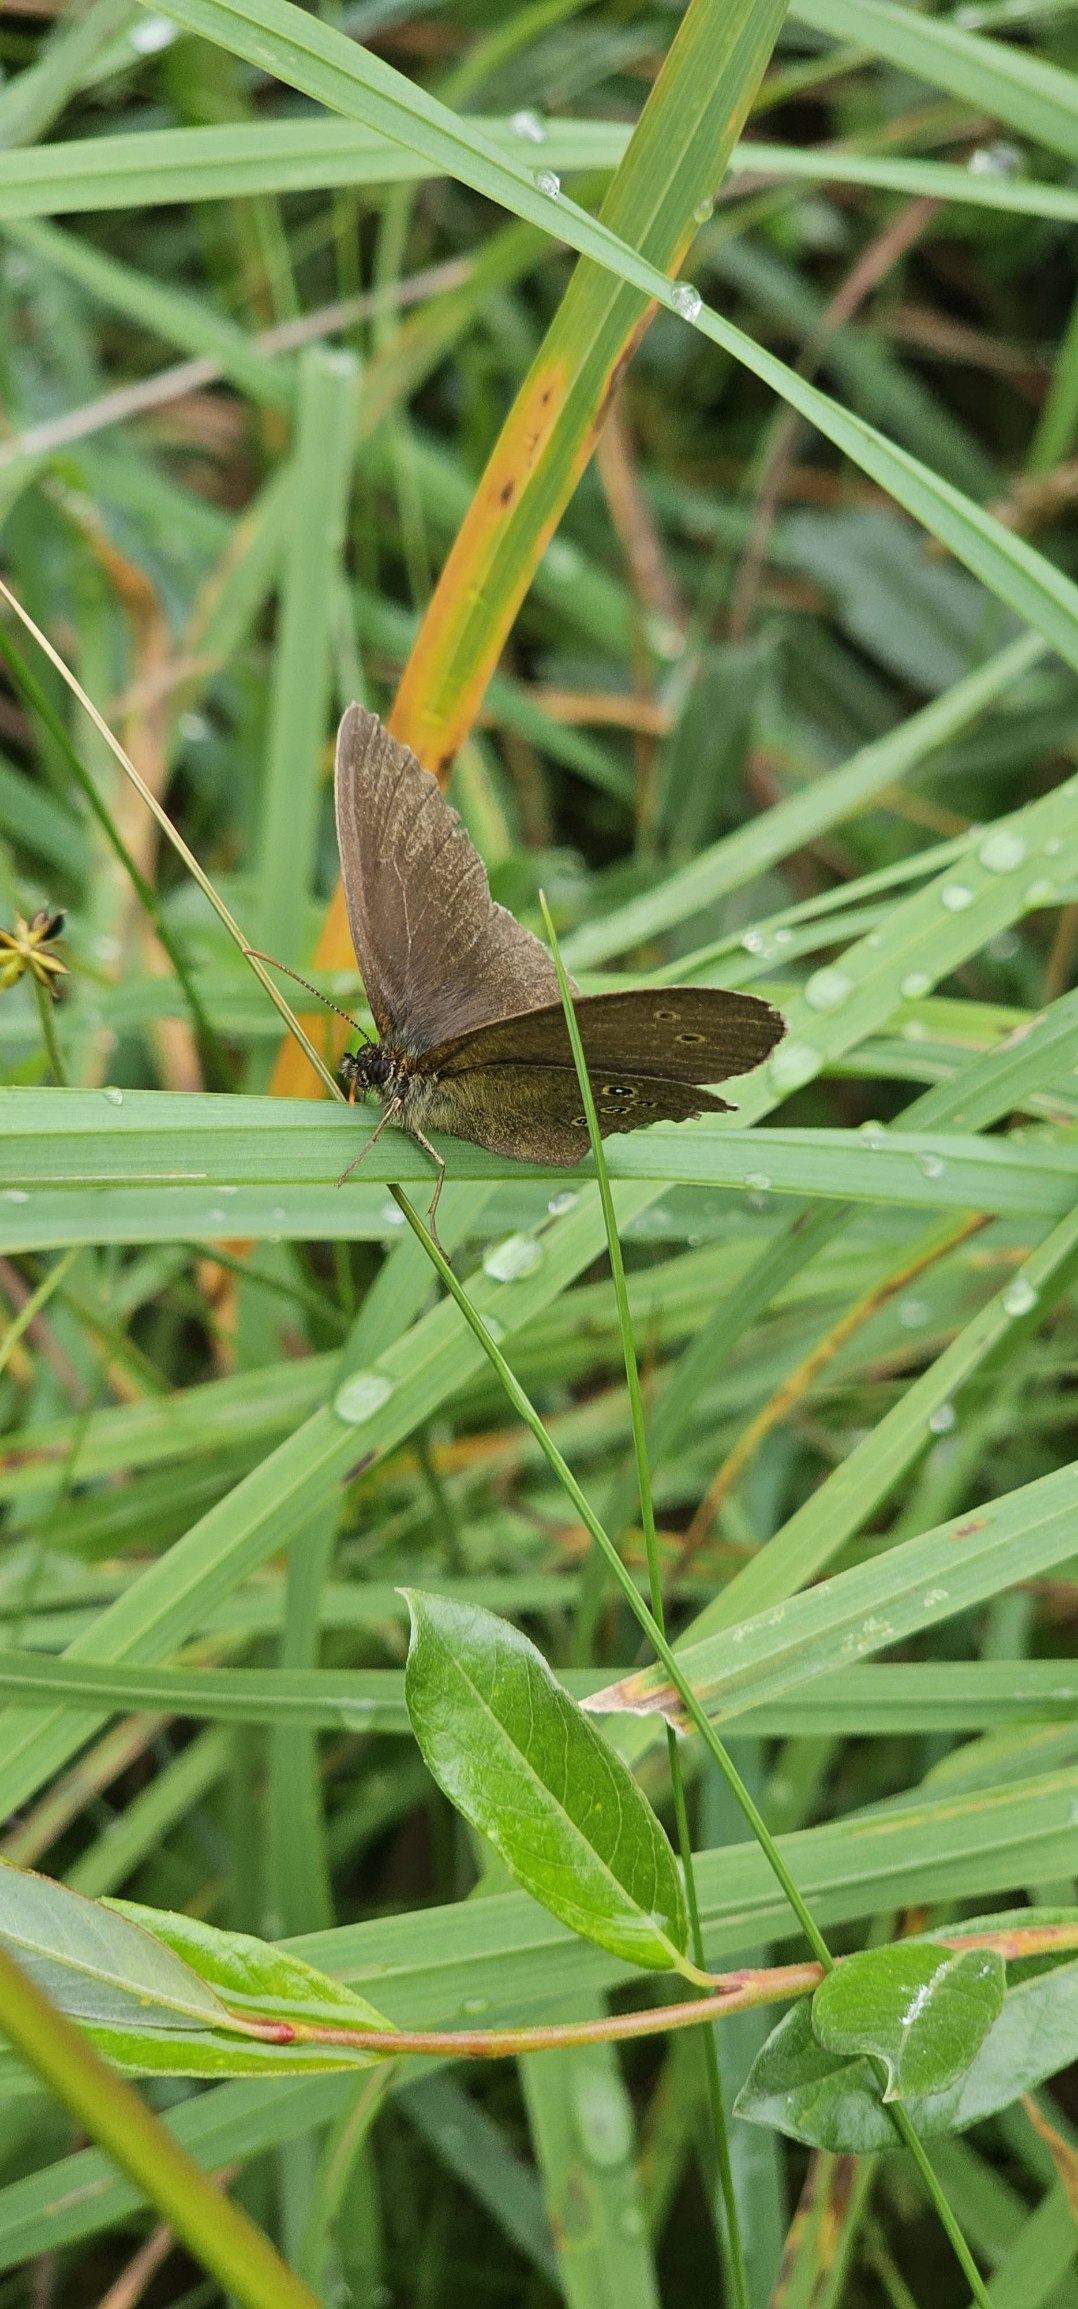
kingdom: Animalia
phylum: Arthropoda
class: Insecta
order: Lepidoptera
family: Nymphalidae
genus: Aphantopus
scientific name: Aphantopus hyperantus
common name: Engrandøje
